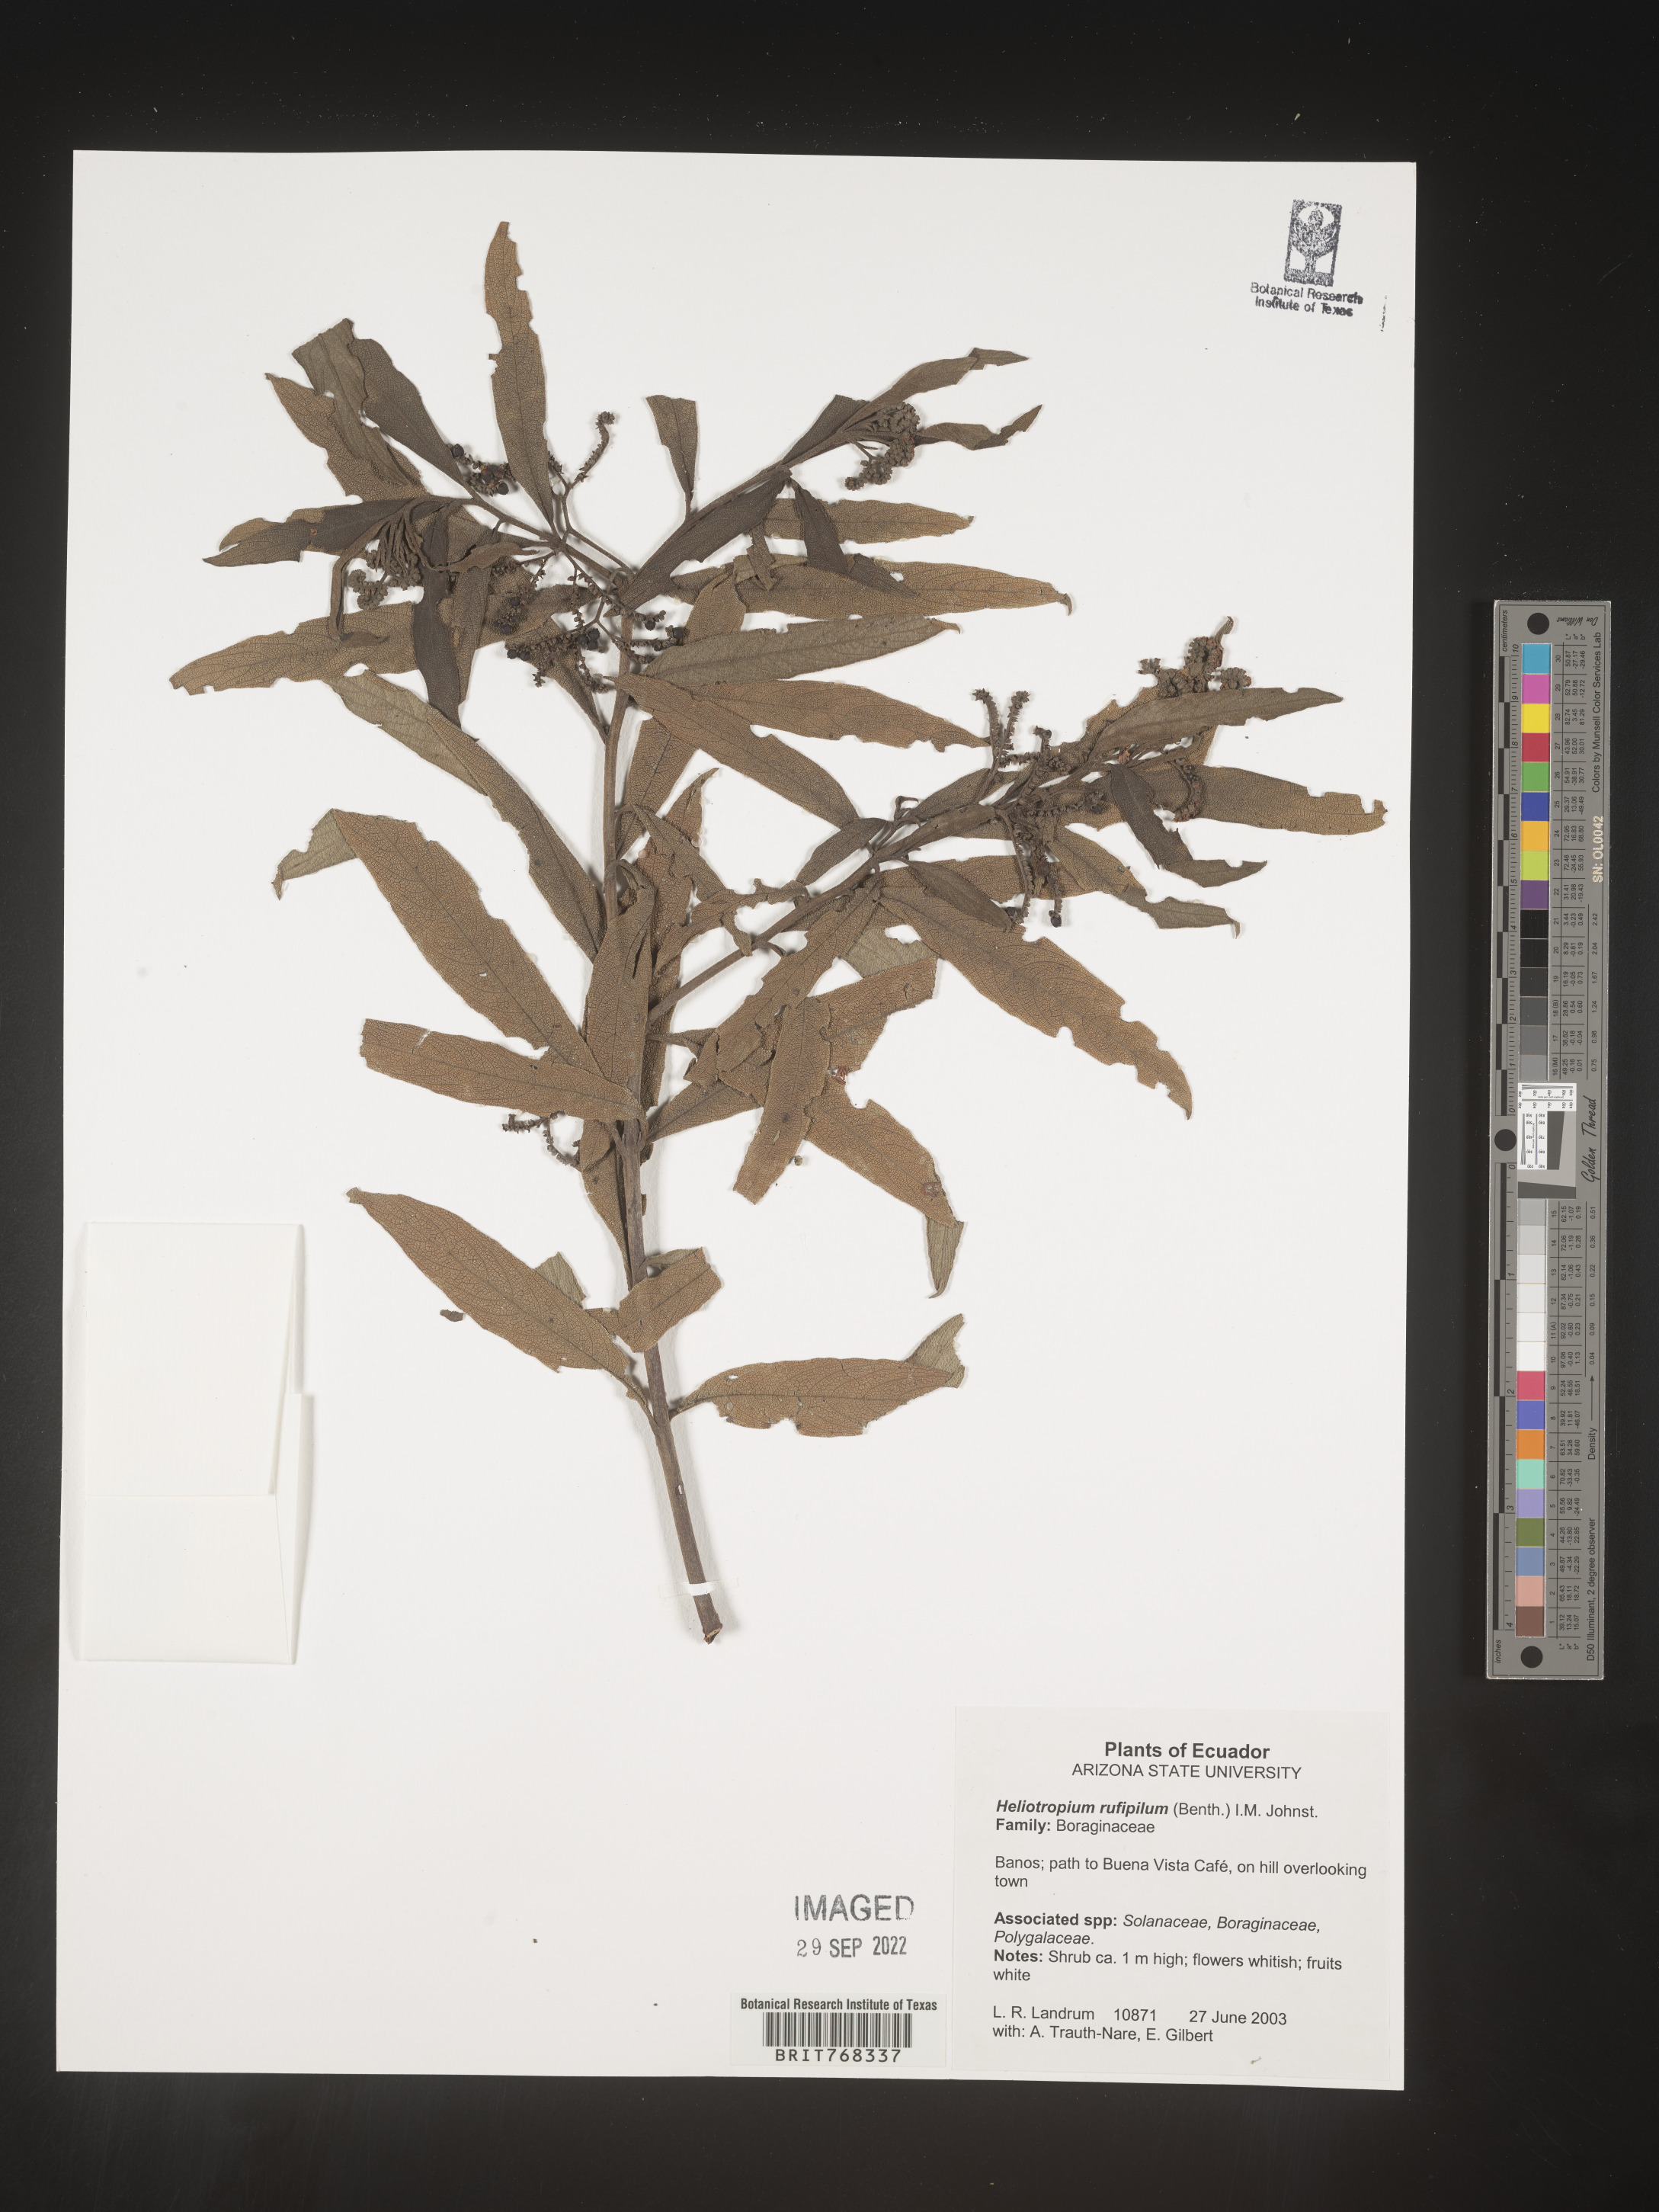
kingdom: Plantae
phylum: Tracheophyta
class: Magnoliopsida
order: Boraginales
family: Heliotropiaceae
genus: Heliotropium
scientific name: Heliotropium
